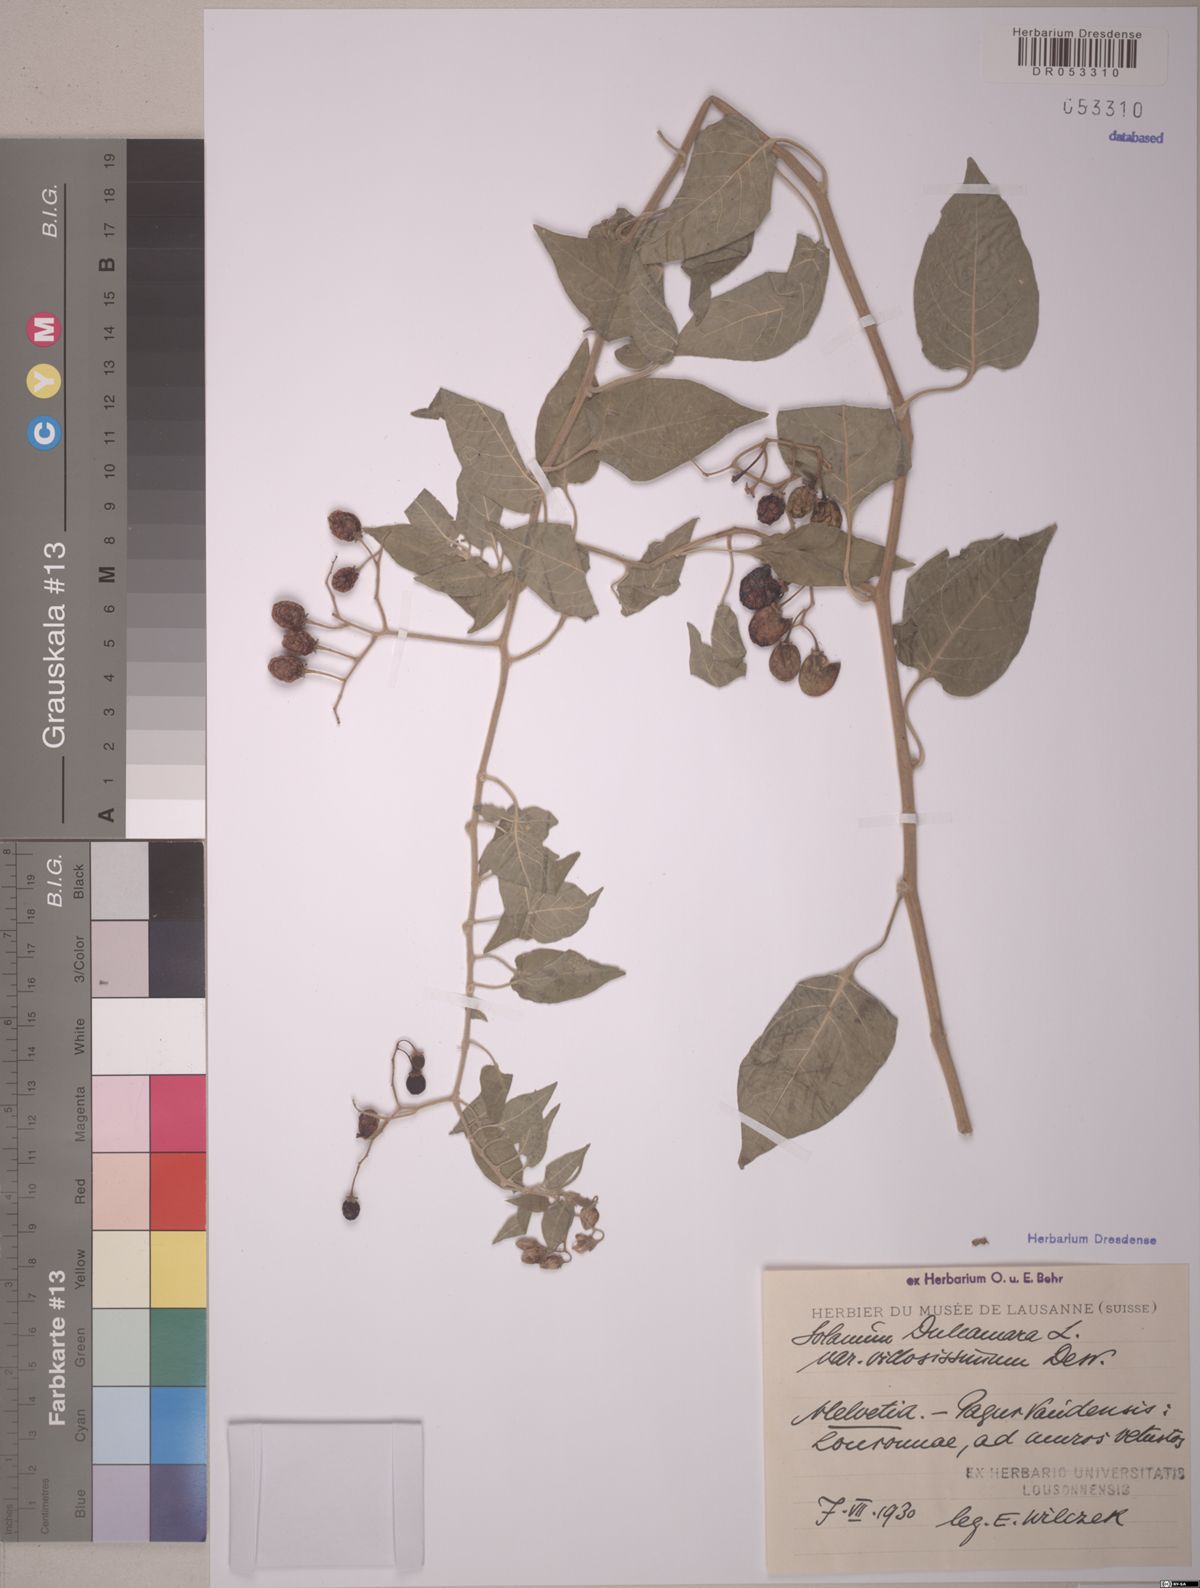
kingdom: Plantae
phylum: Tracheophyta
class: Magnoliopsida
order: Solanales
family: Solanaceae
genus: Solanum
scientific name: Solanum dulcamara
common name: Climbing nightshade
